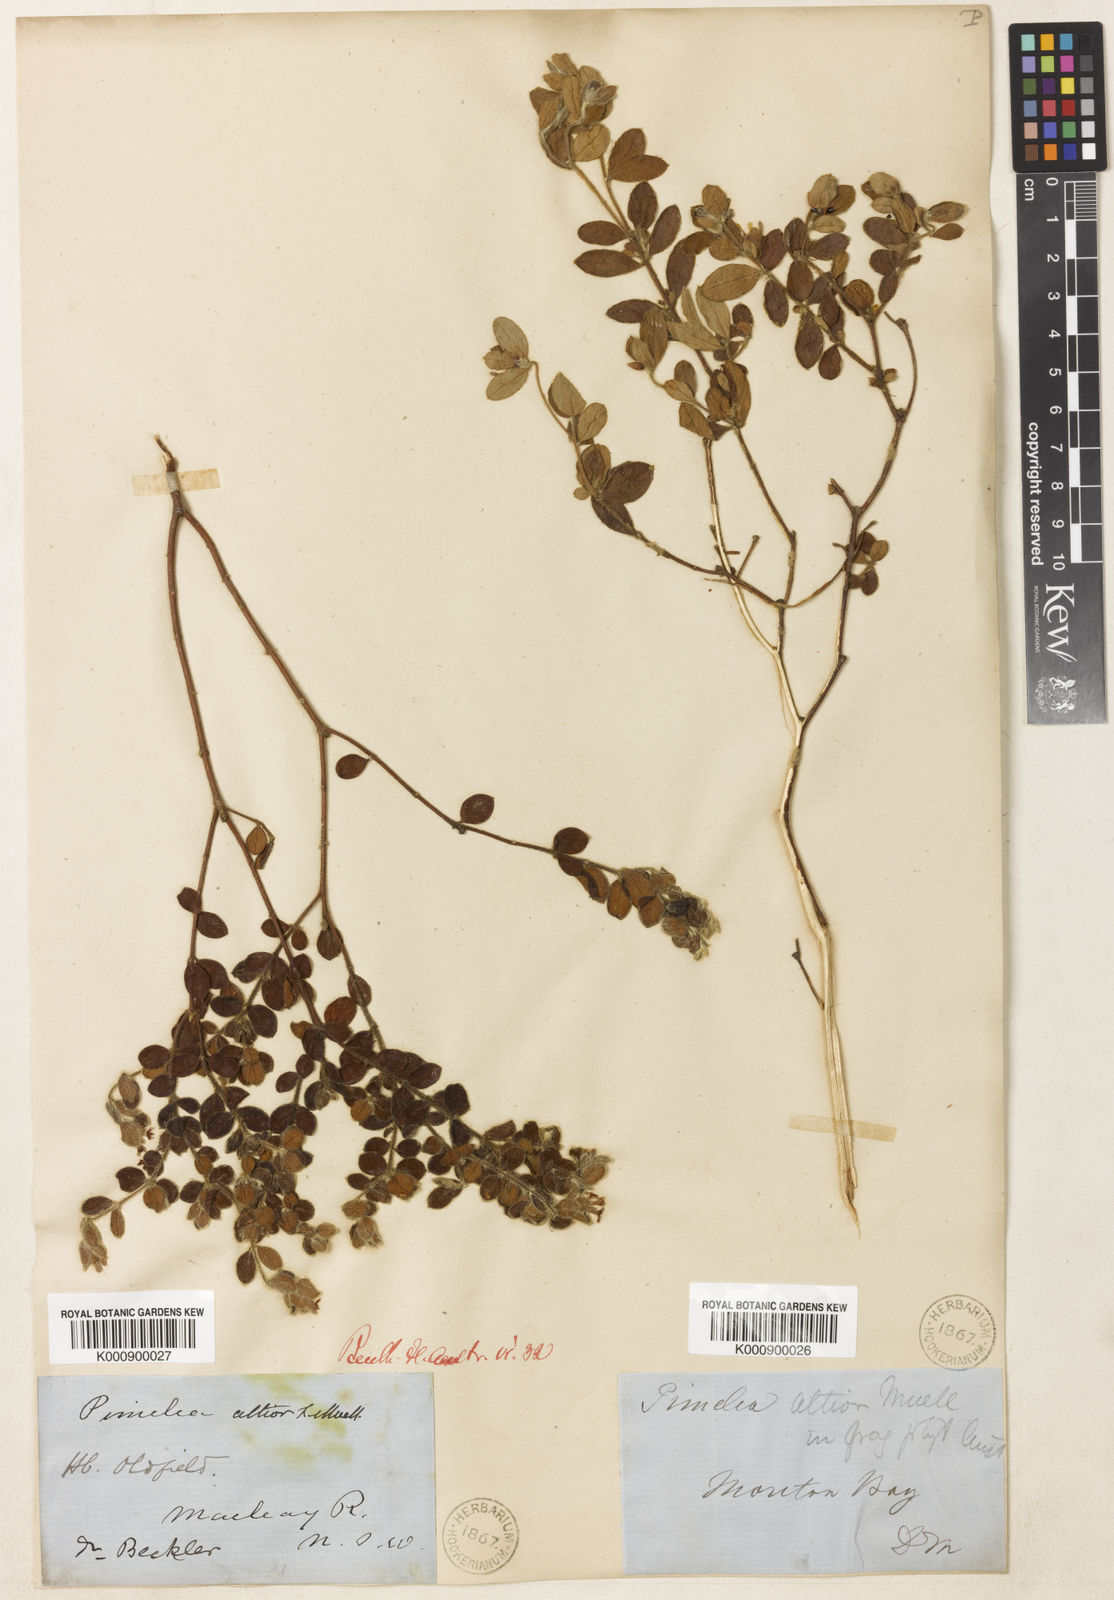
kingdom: Plantae
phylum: Tracheophyta
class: Magnoliopsida
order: Malvales
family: Thymelaeaceae
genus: Pimelea
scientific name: Pimelea altior
